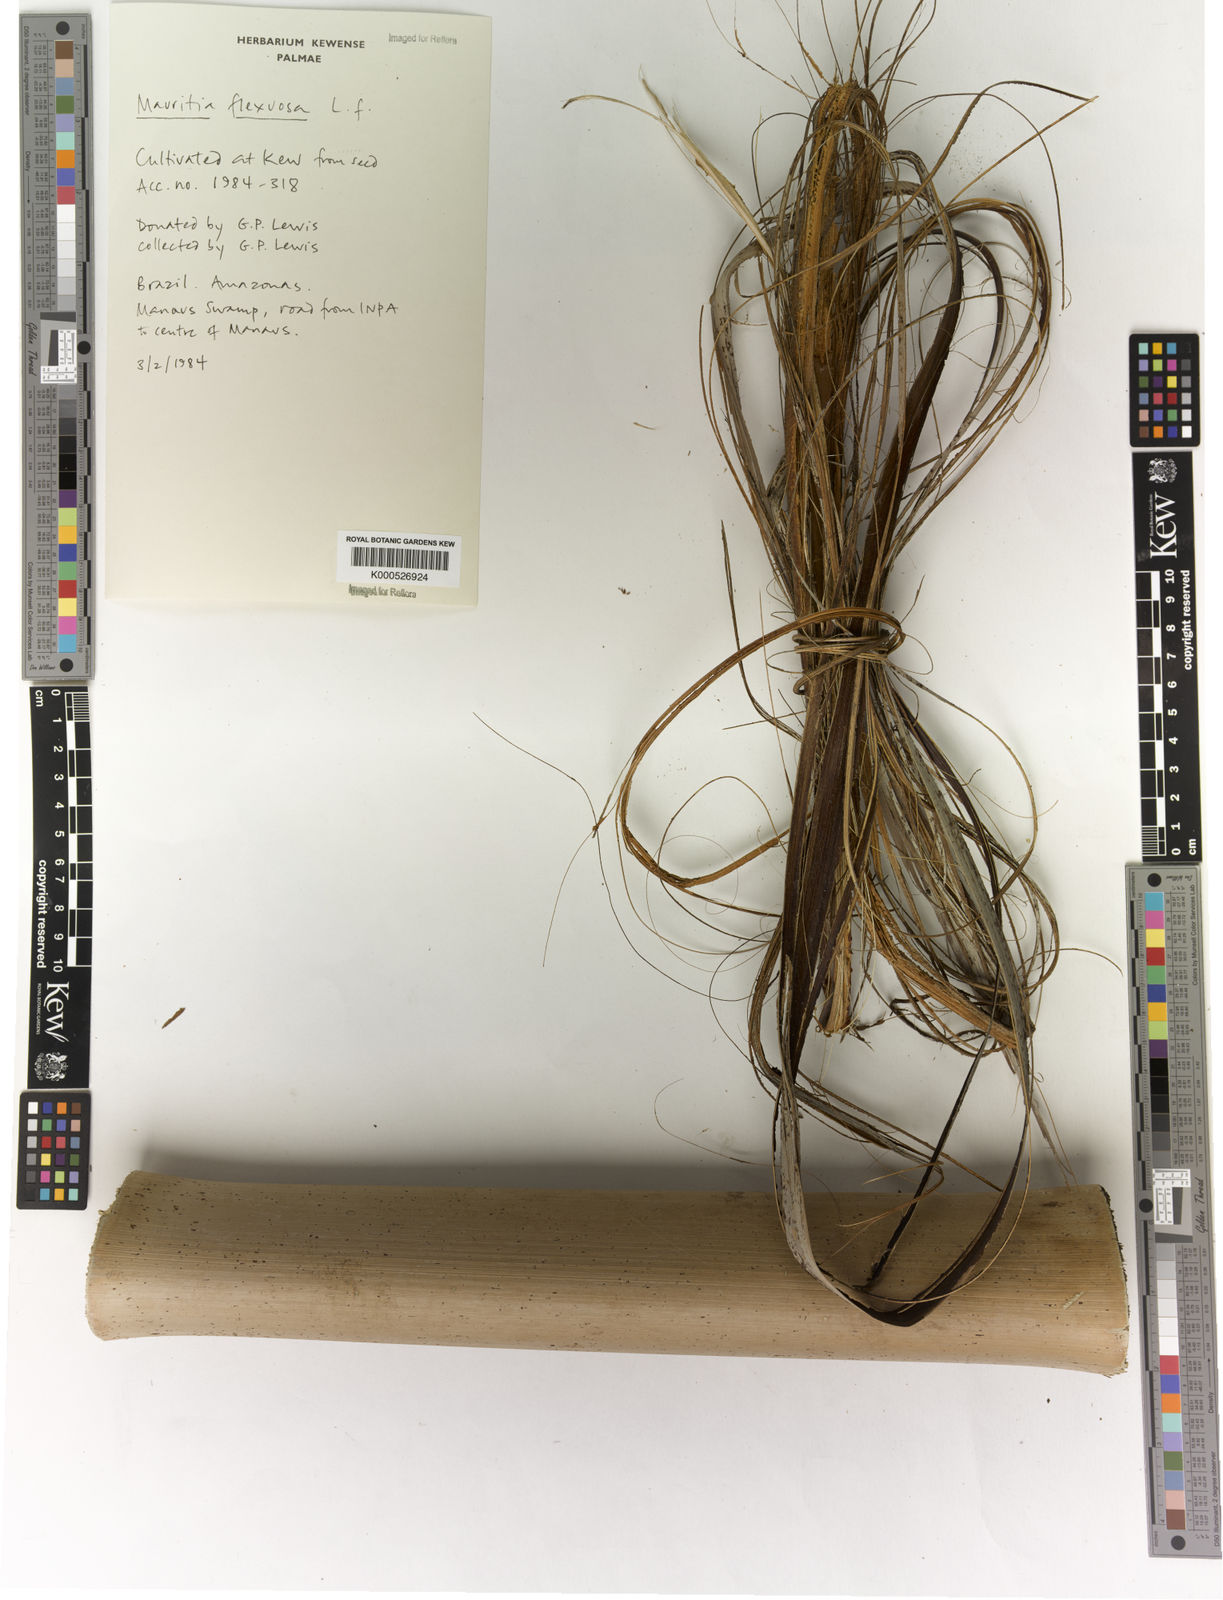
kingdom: Plantae
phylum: Tracheophyta
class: Liliopsida
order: Arecales
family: Arecaceae
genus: Mauritia
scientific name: Mauritia flexuosa
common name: Tree-of-life
